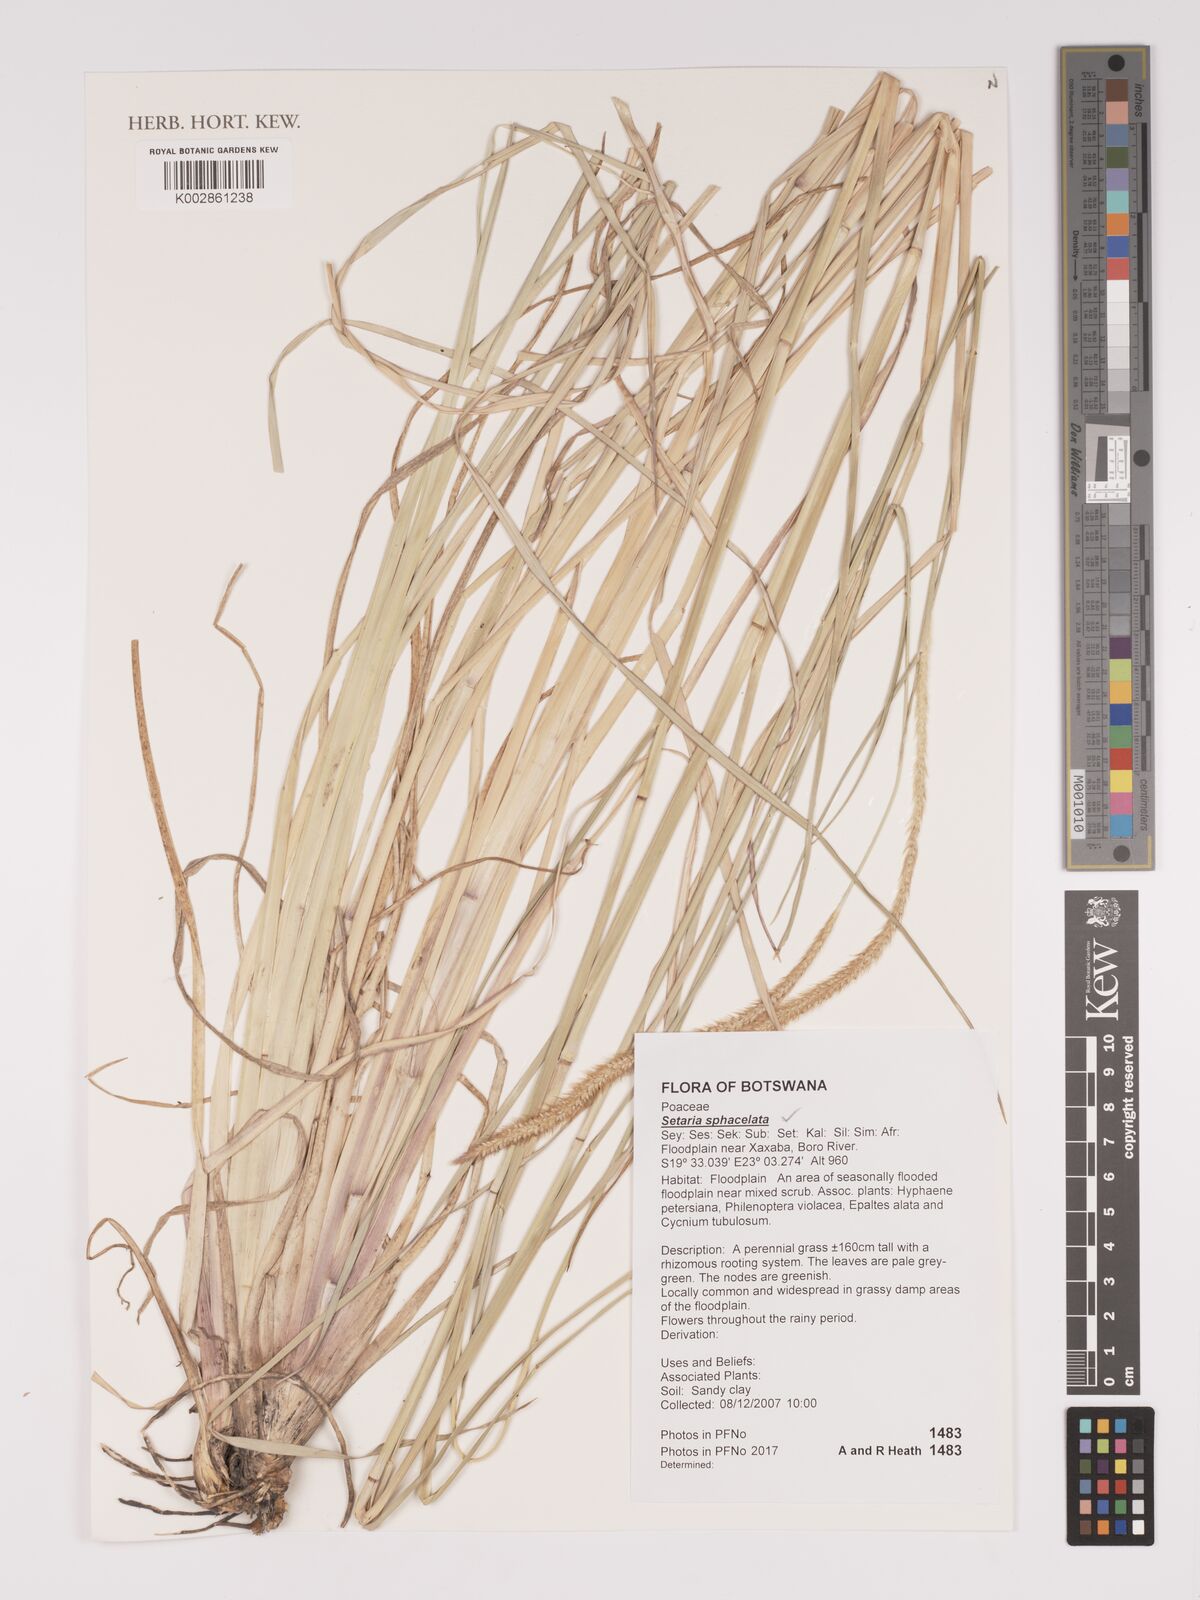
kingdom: Plantae
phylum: Tracheophyta
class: Liliopsida
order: Poales
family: Poaceae
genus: Setaria
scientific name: Setaria sphacelata
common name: African bristlegrass
